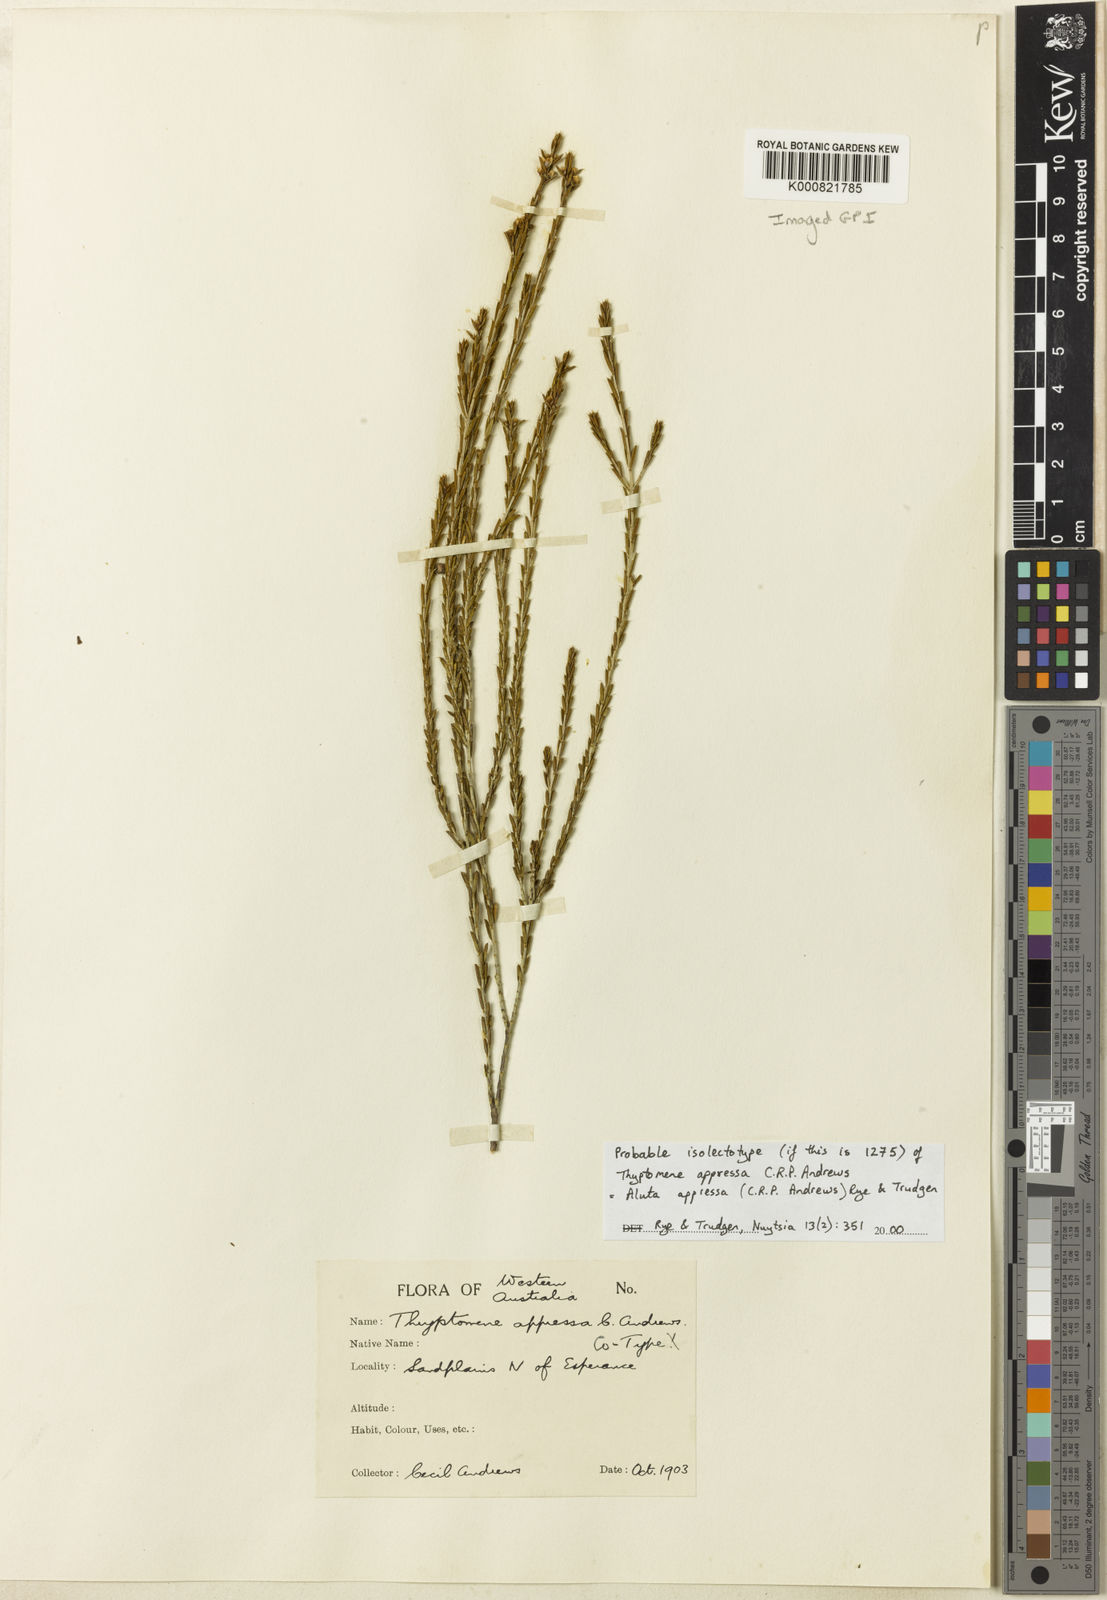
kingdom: Plantae
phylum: Tracheophyta
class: Magnoliopsida
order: Myrtales
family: Myrtaceae
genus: Aluta
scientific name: Aluta appressa
